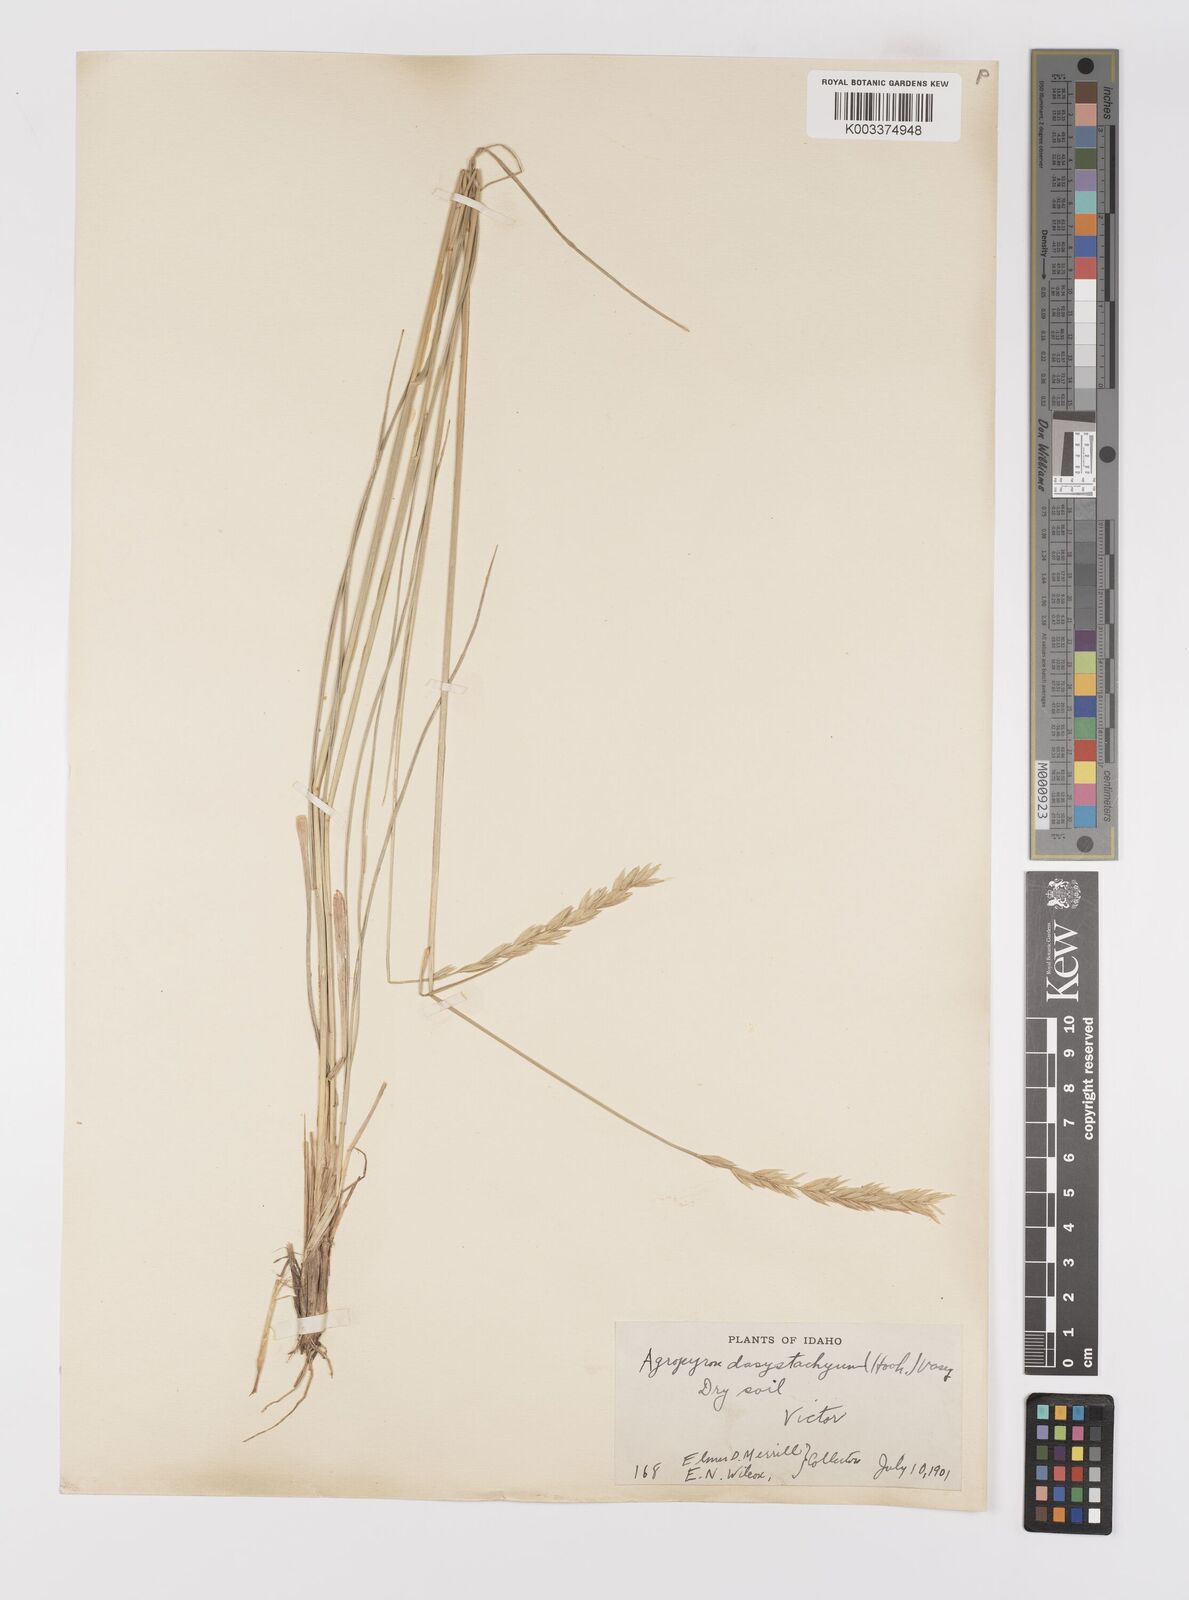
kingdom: Plantae
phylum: Tracheophyta
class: Liliopsida
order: Poales
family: Poaceae
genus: Elymus
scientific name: Elymus lanceolatus
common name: Thick-spike wheatgrass
